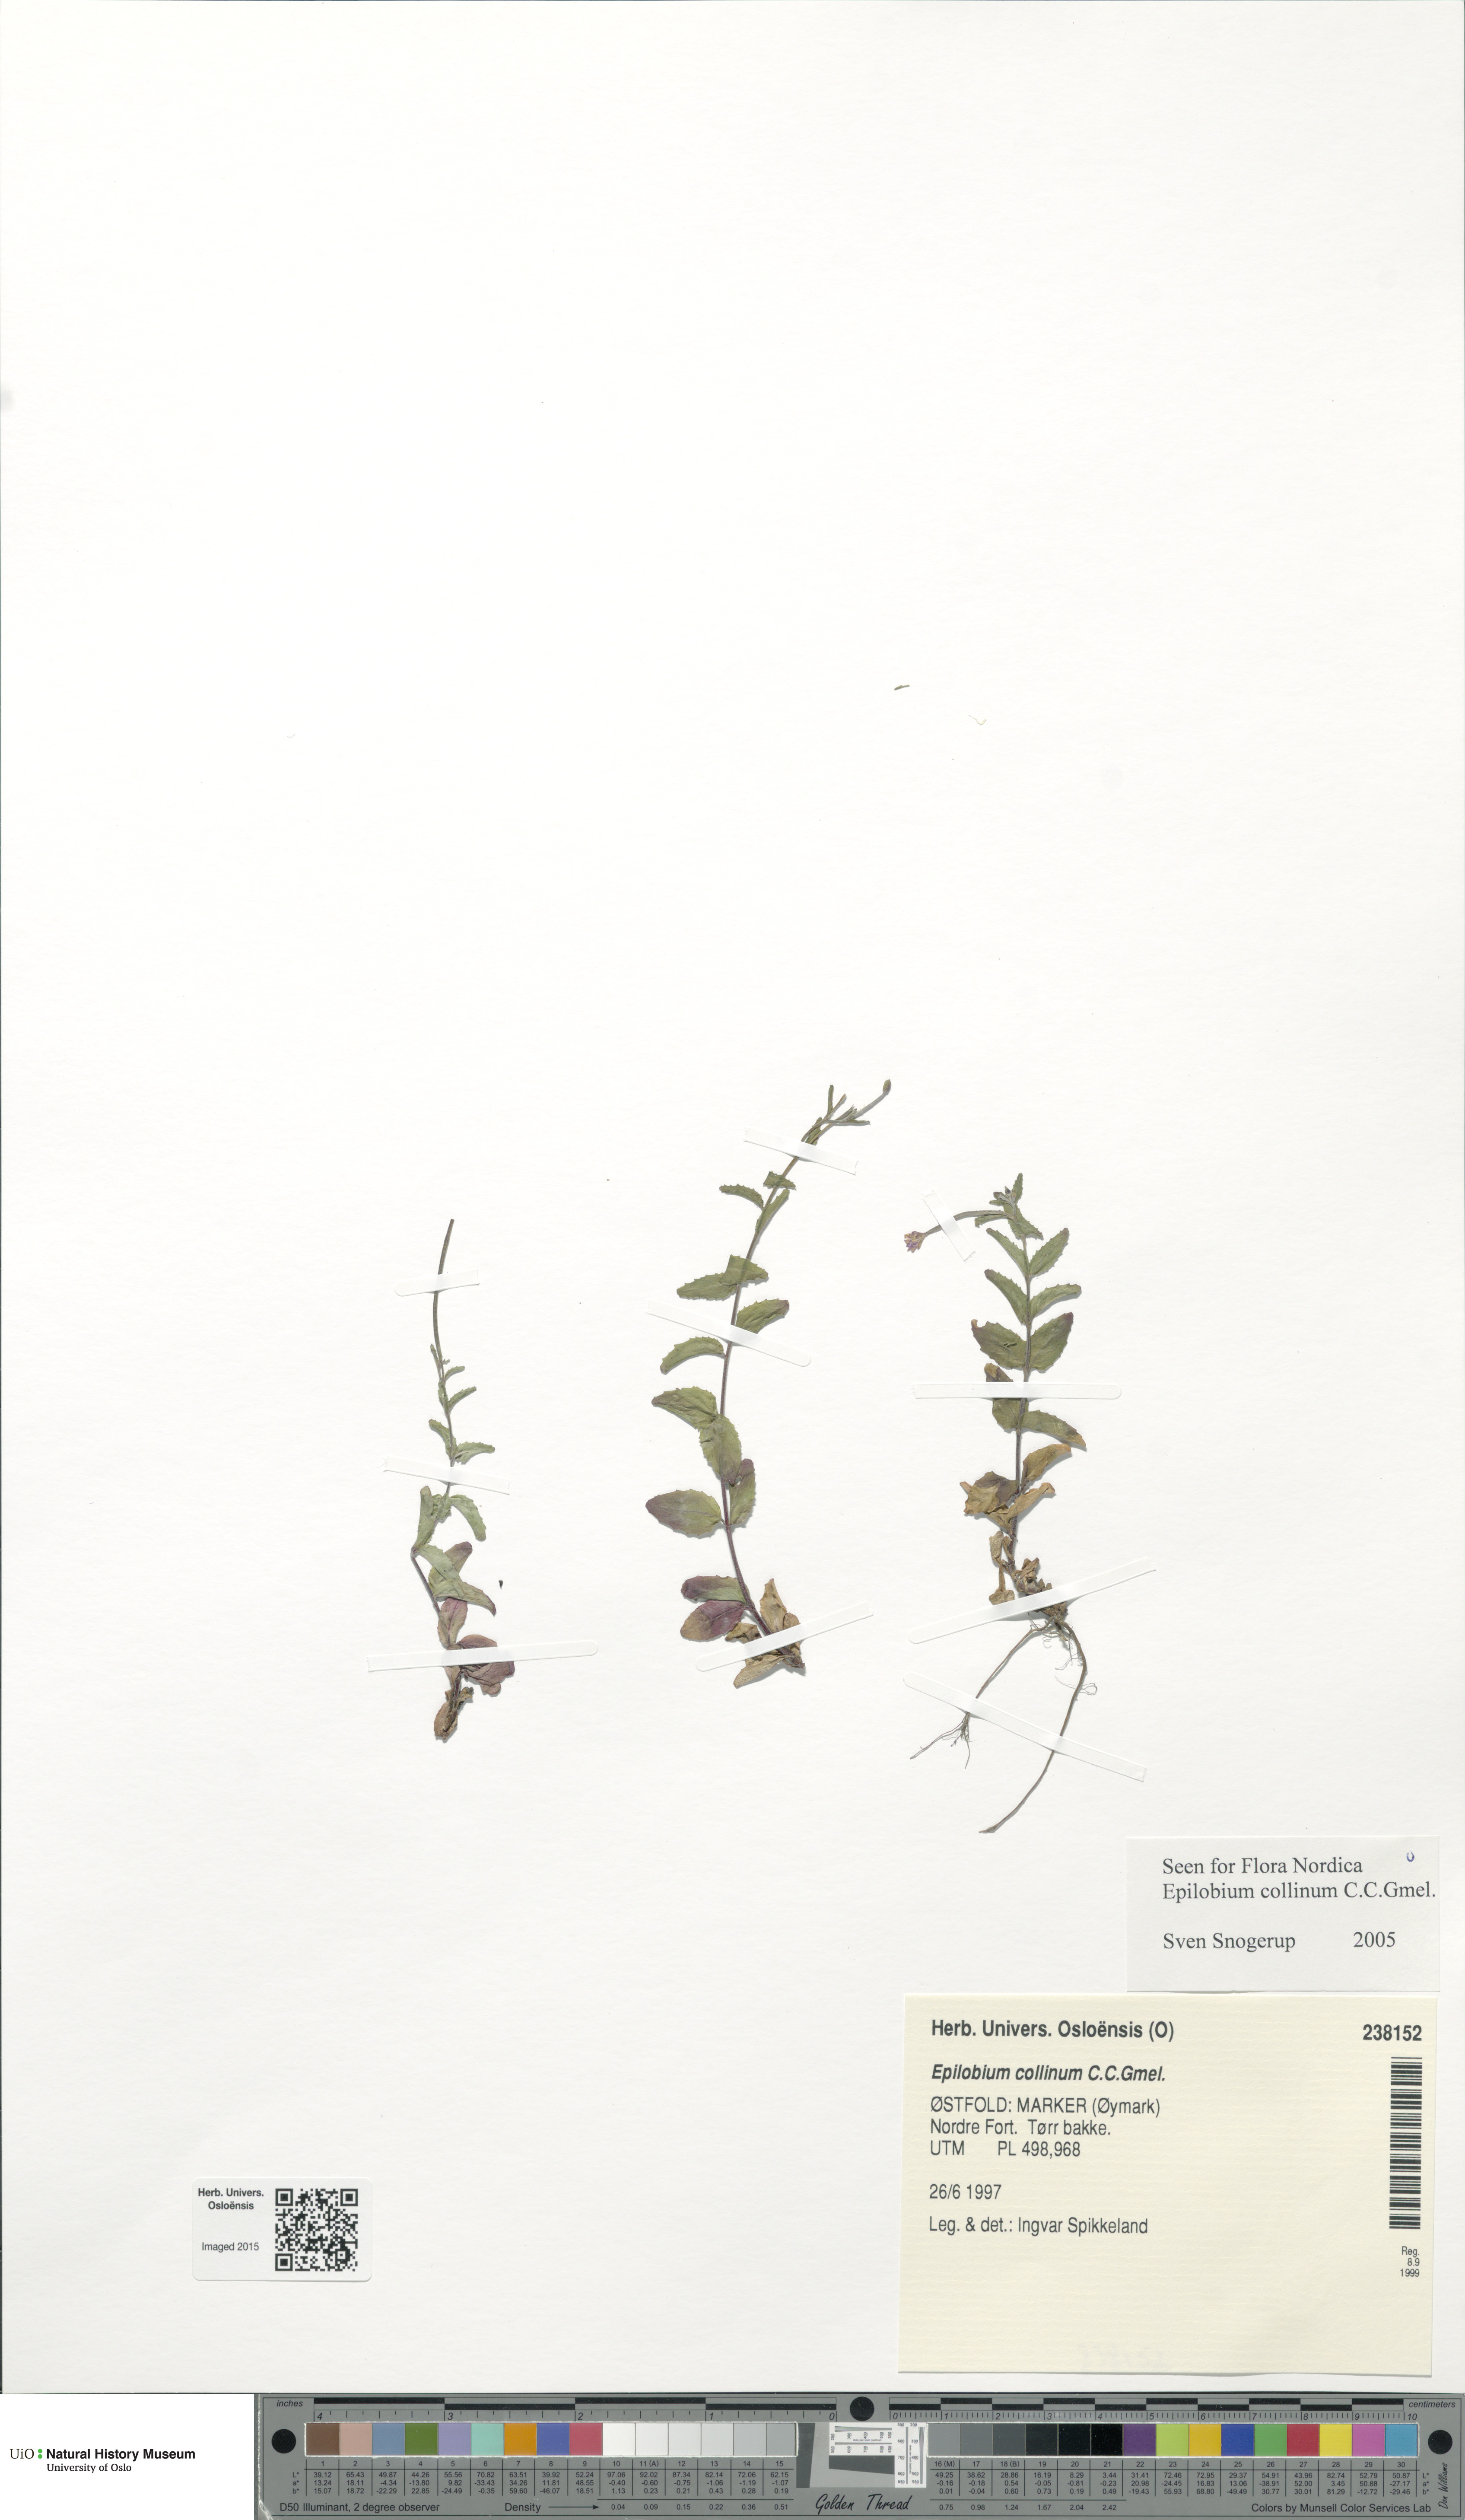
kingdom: Plantae
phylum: Tracheophyta
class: Magnoliopsida
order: Myrtales
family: Onagraceae
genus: Epilobium
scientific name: Epilobium collinum
